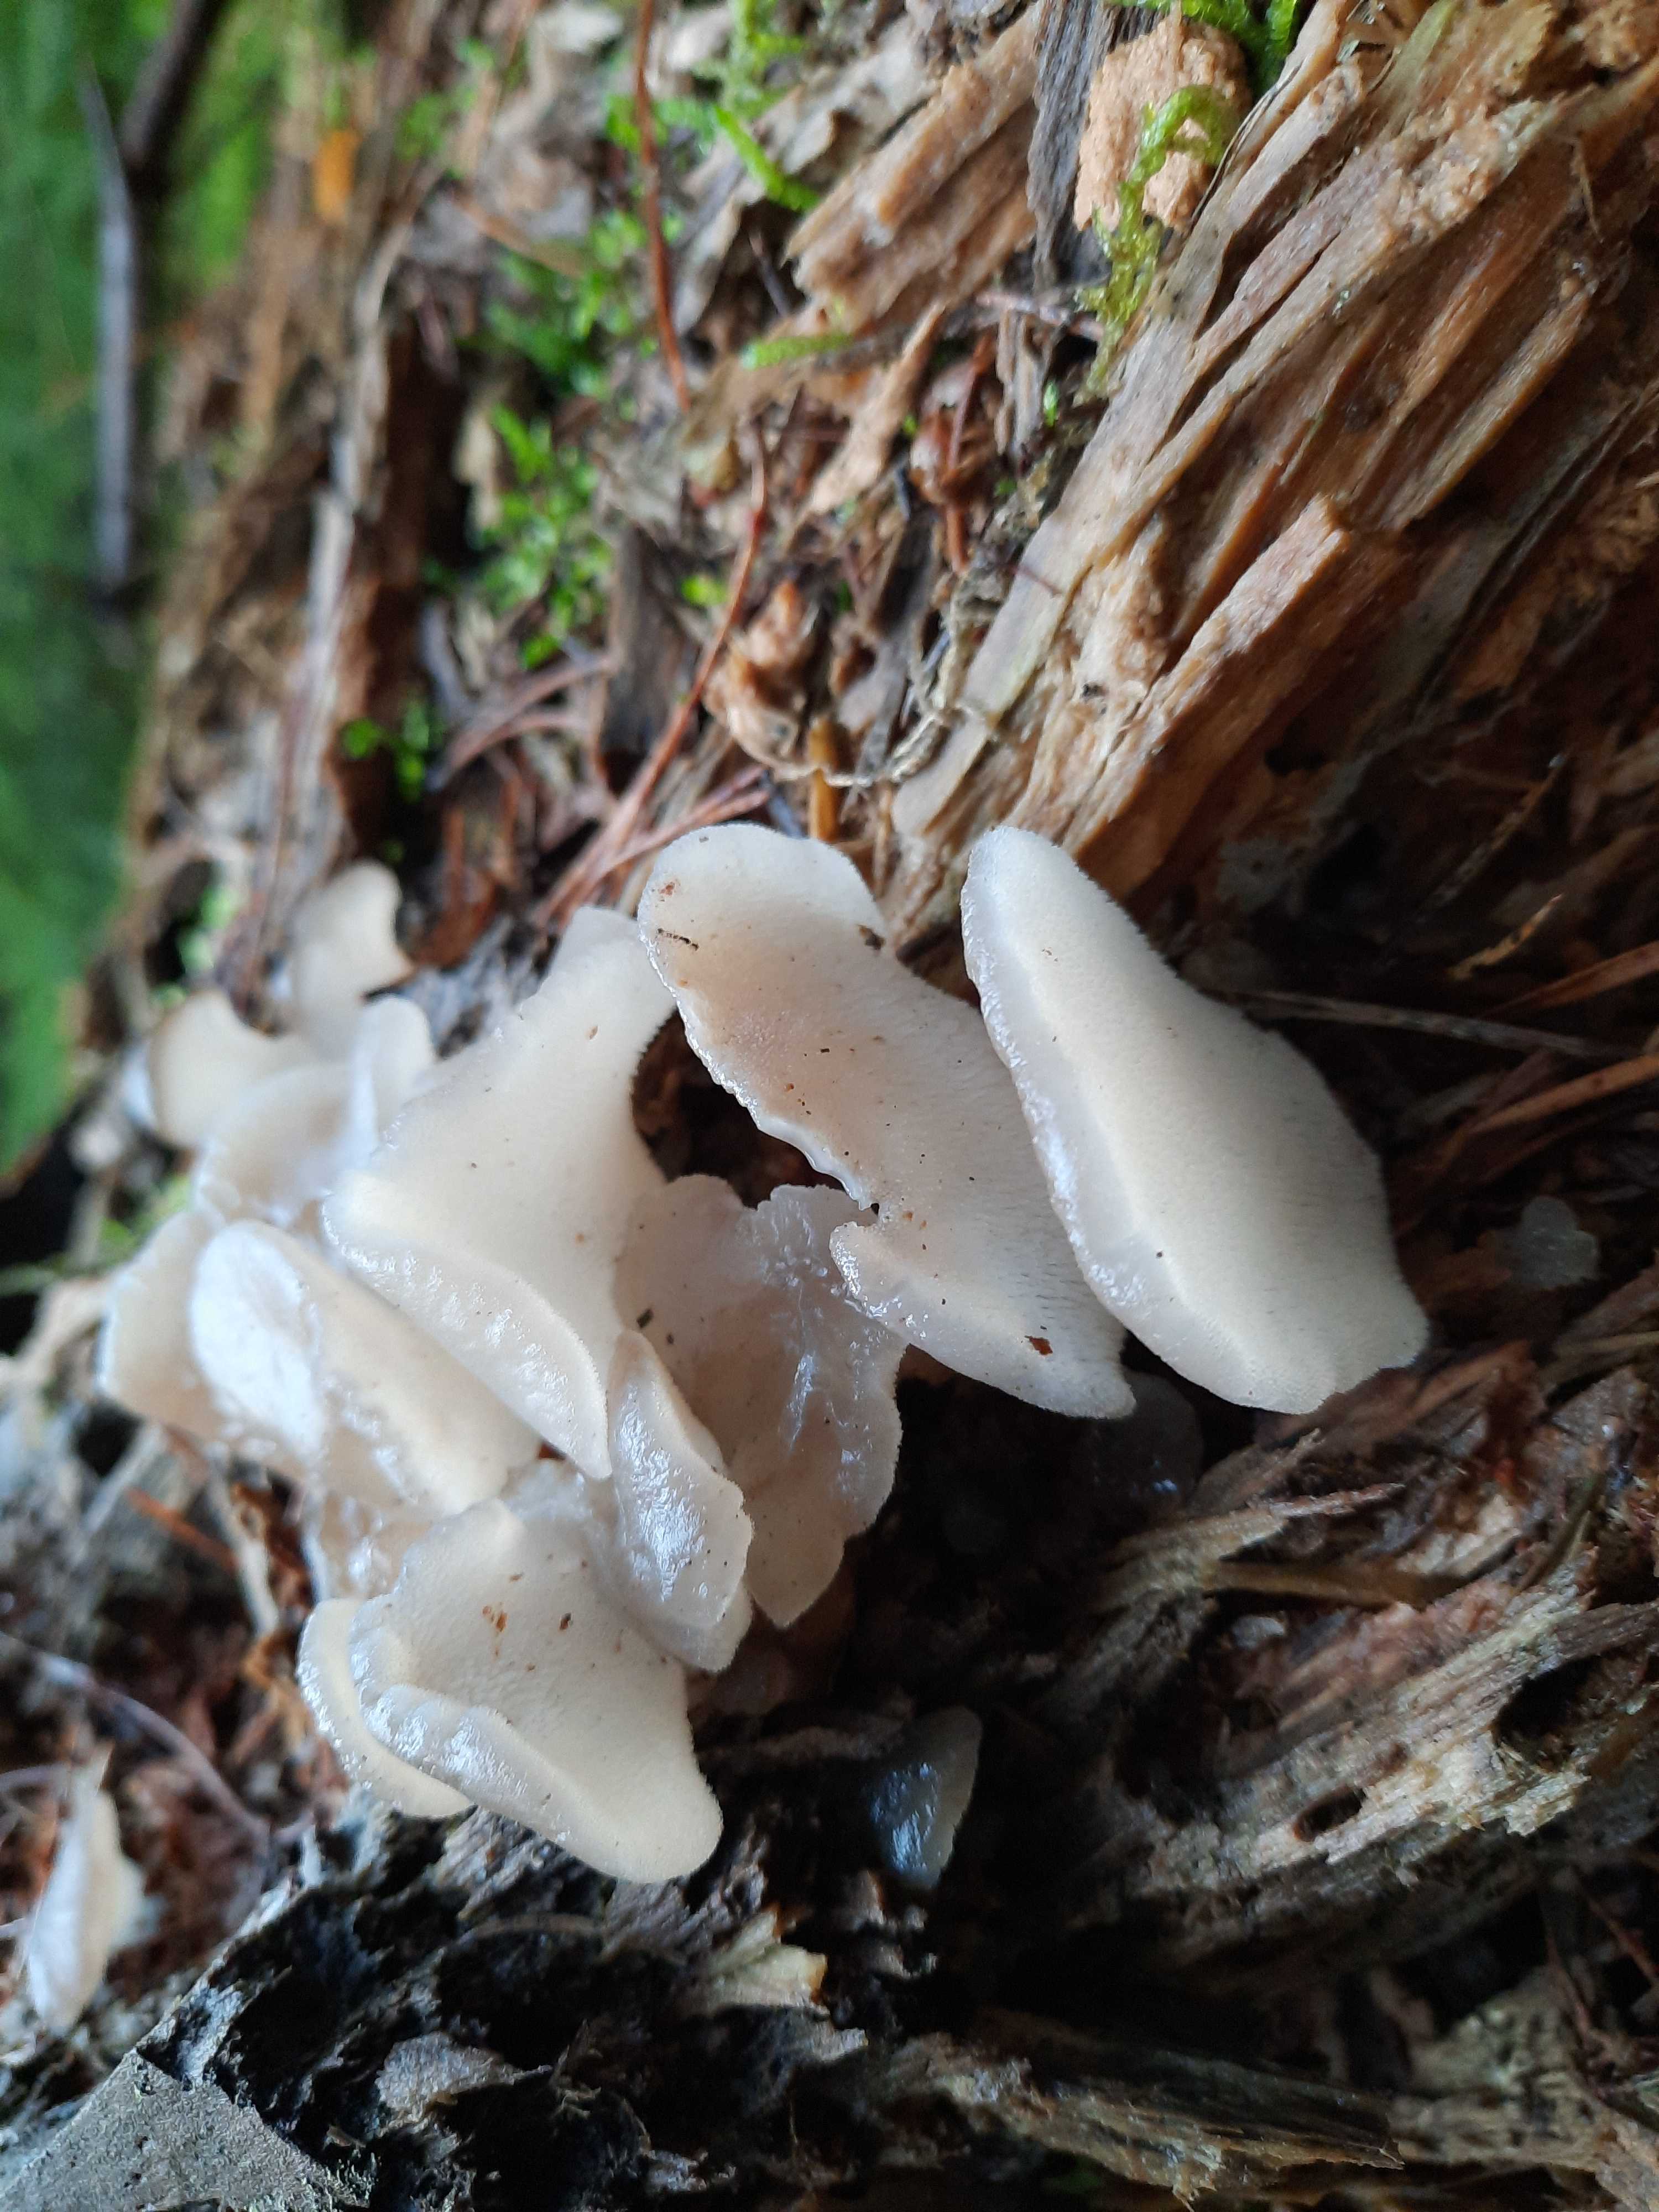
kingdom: Fungi
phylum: Basidiomycota
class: Agaricomycetes
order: Auriculariales
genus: Pseudohydnum
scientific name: Pseudohydnum gelatinosum
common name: bævretand
